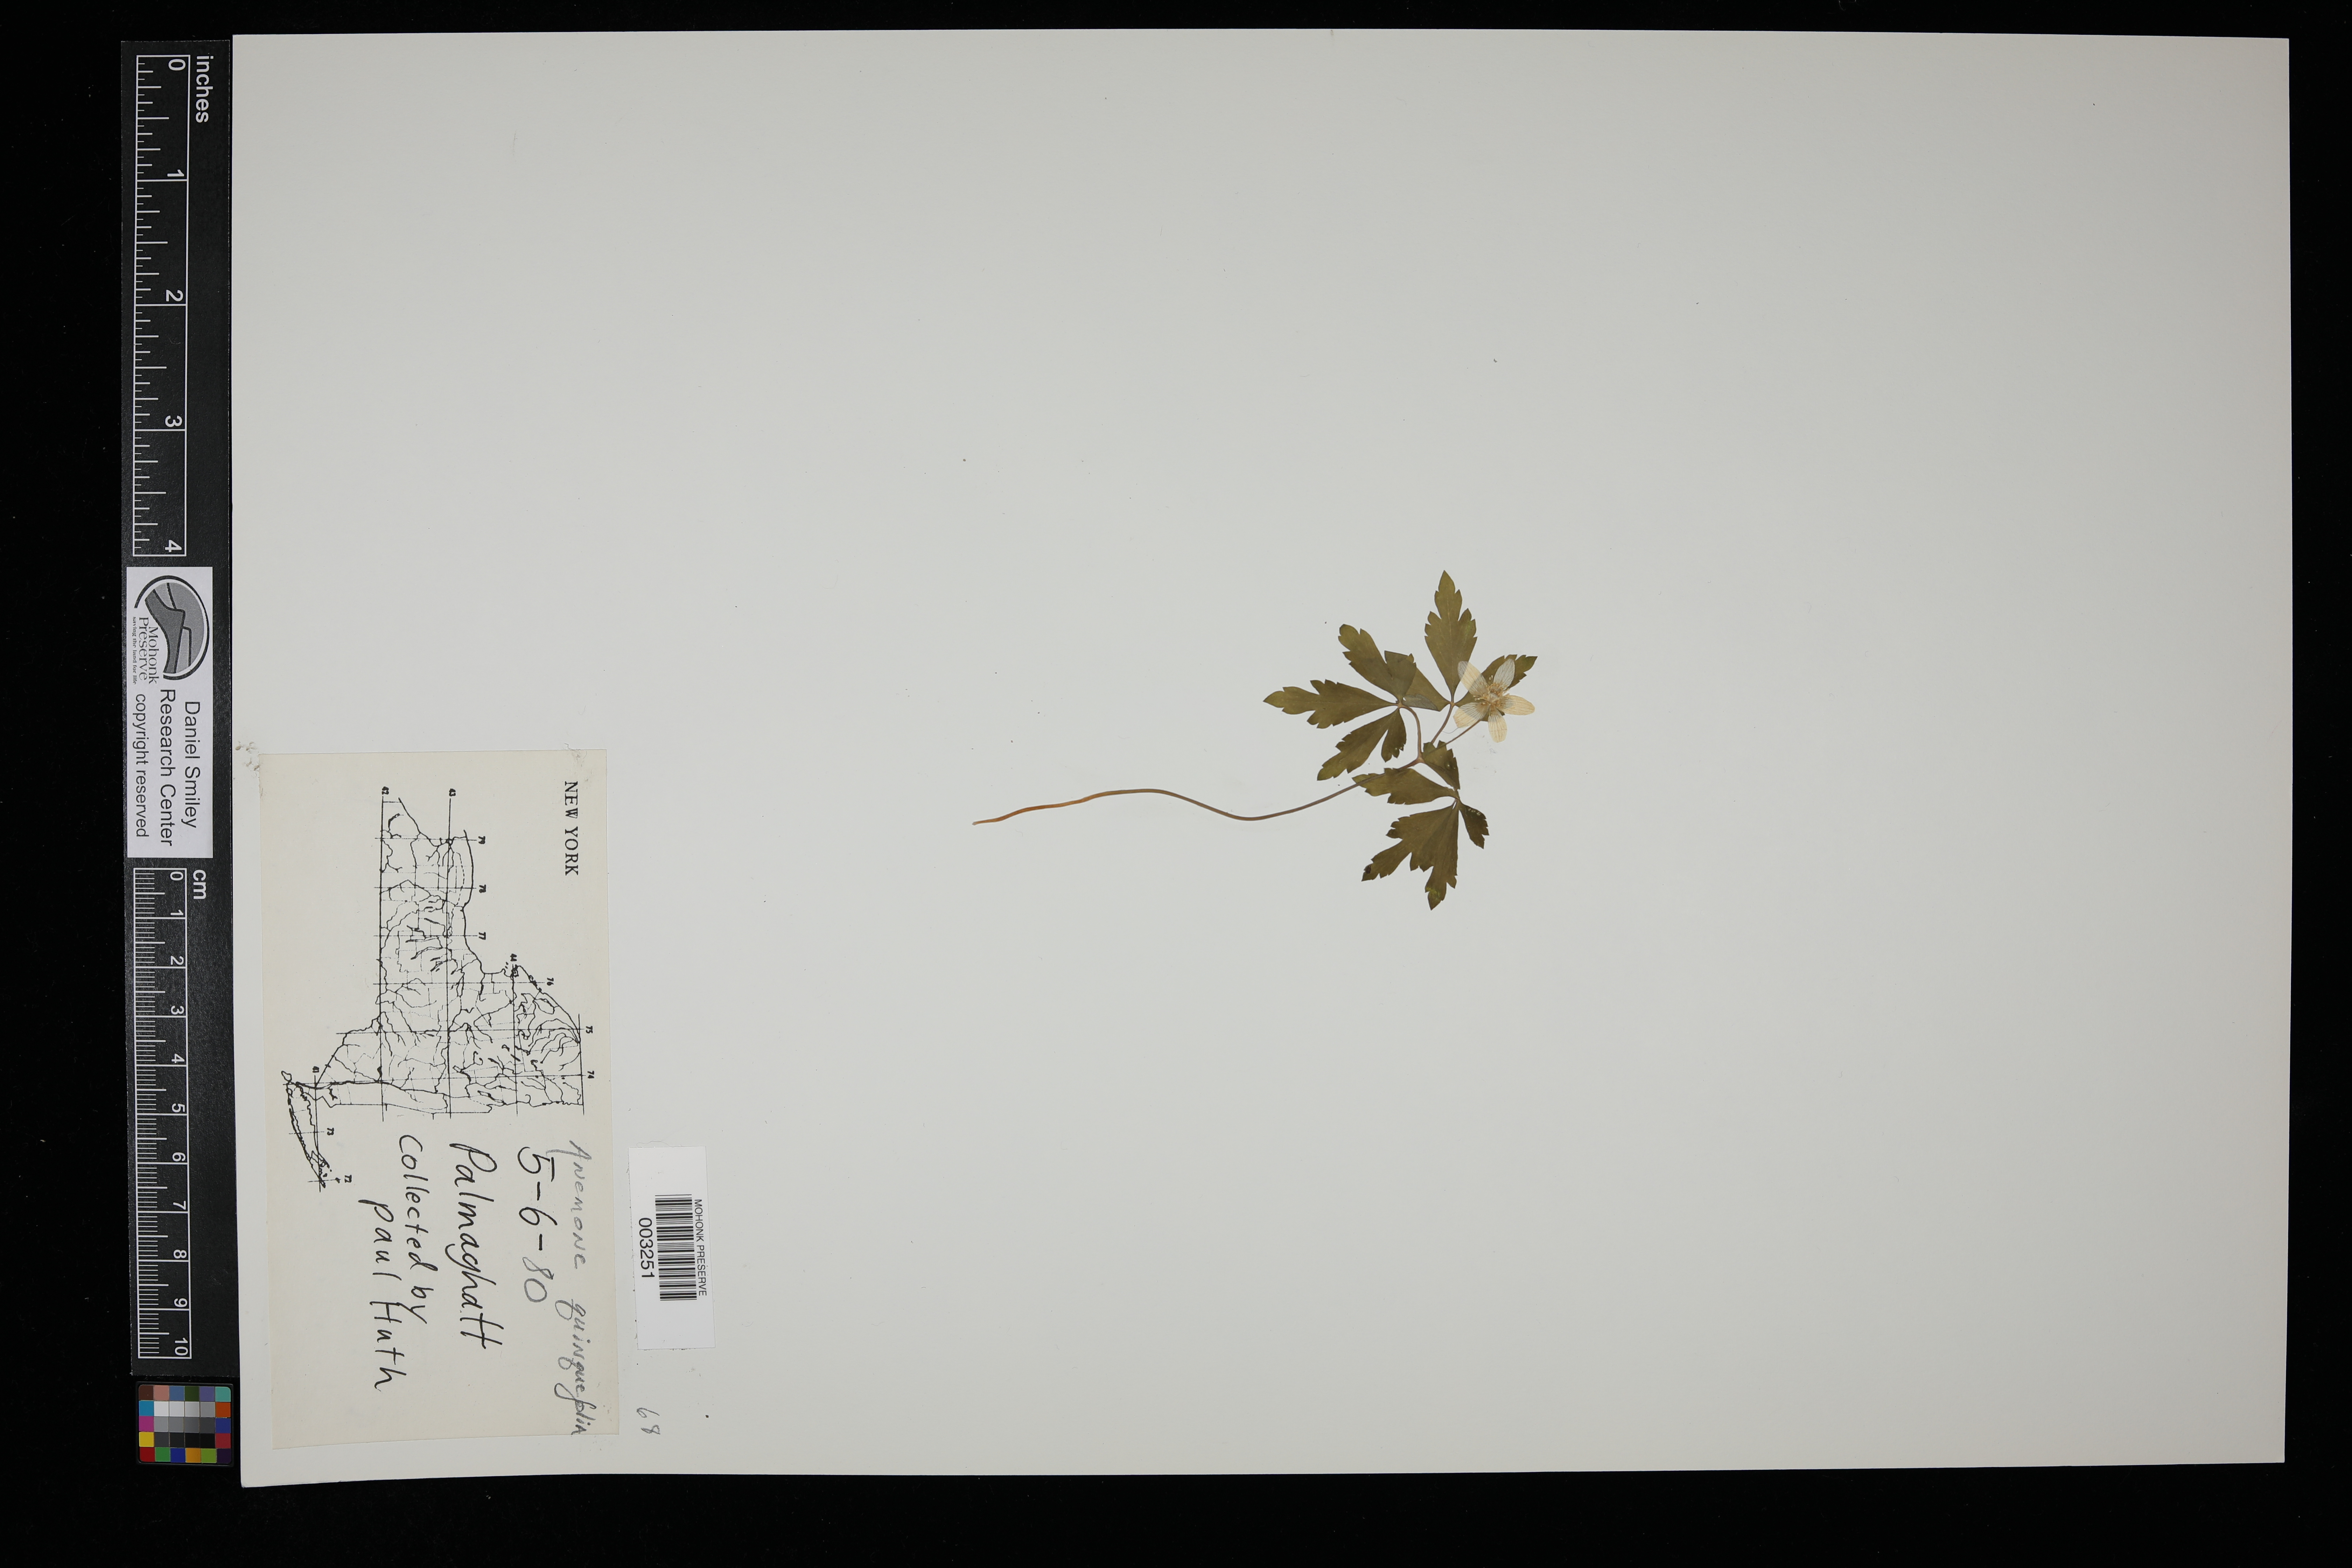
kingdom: Plantae
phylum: Tracheophyta
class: Magnoliopsida
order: Ranunculales
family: Ranunculaceae
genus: Anemone
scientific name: Anemone quinquefolia
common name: Wood anemone
